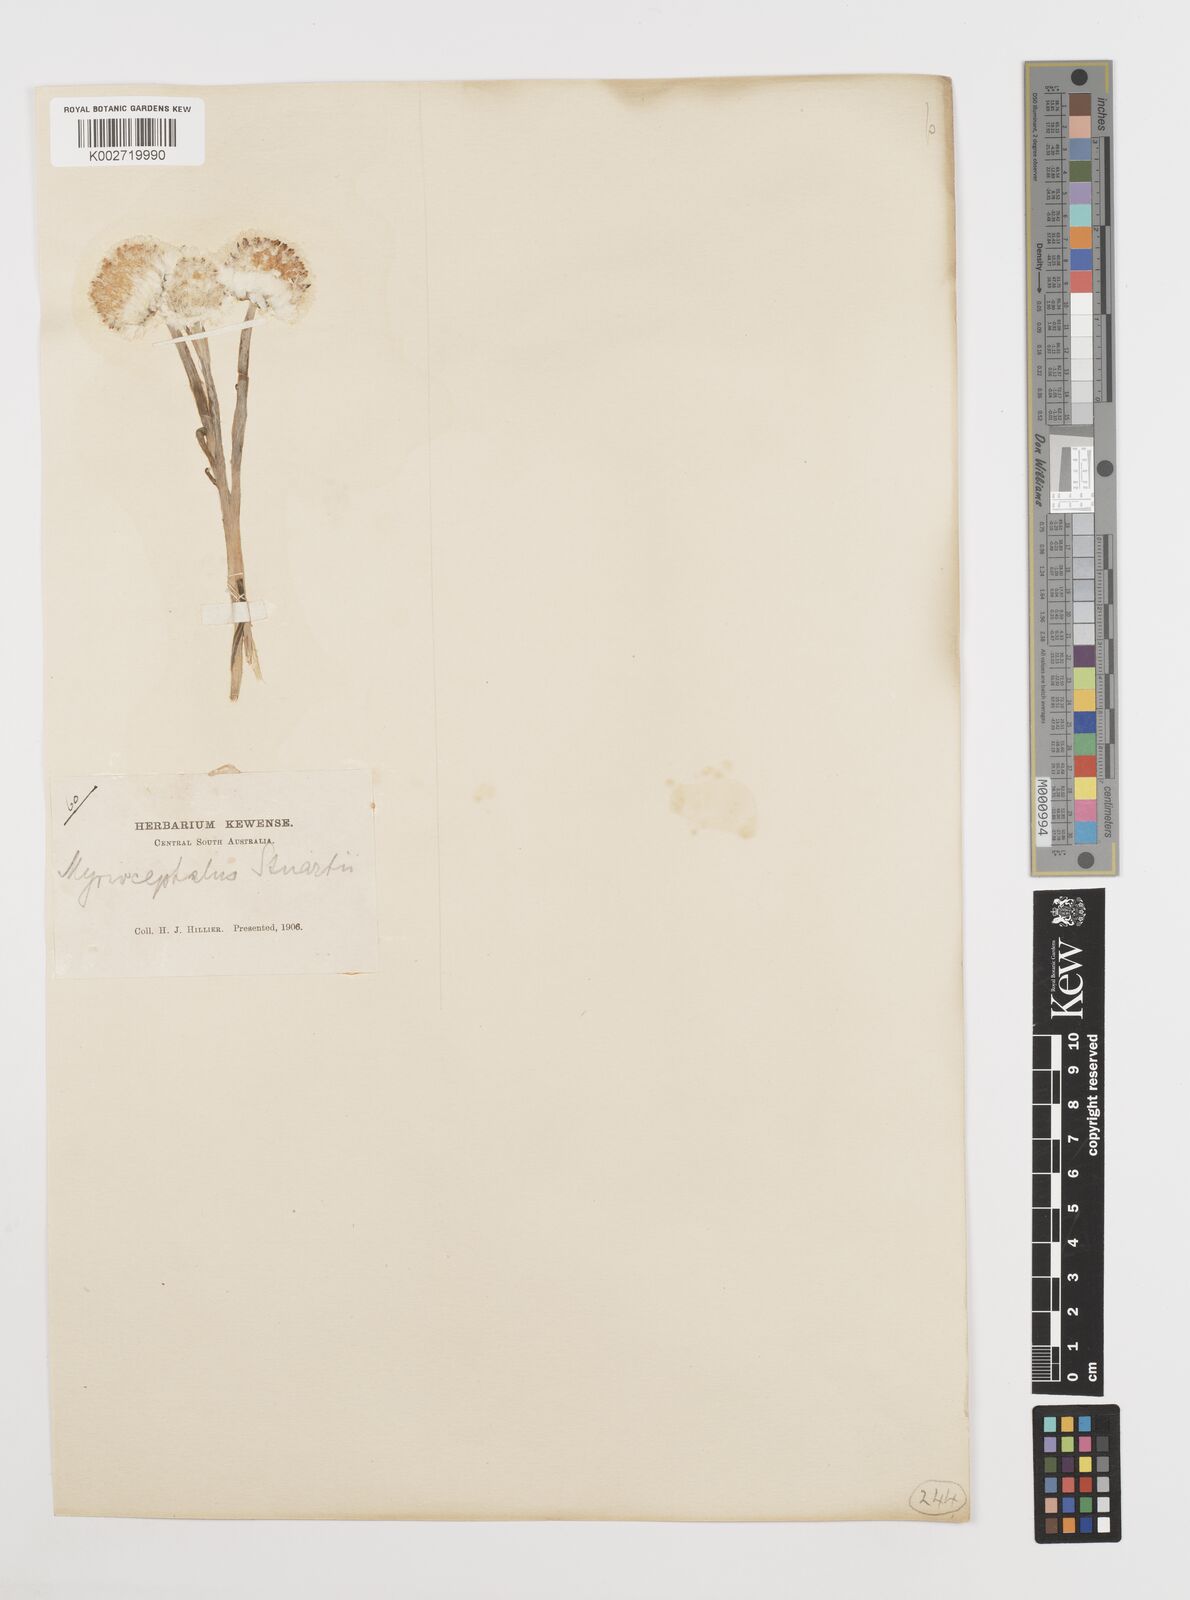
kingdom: Plantae
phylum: Tracheophyta
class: Magnoliopsida
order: Asterales
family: Asteraceae
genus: Polycalymma
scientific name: Polycalymma stuartii
